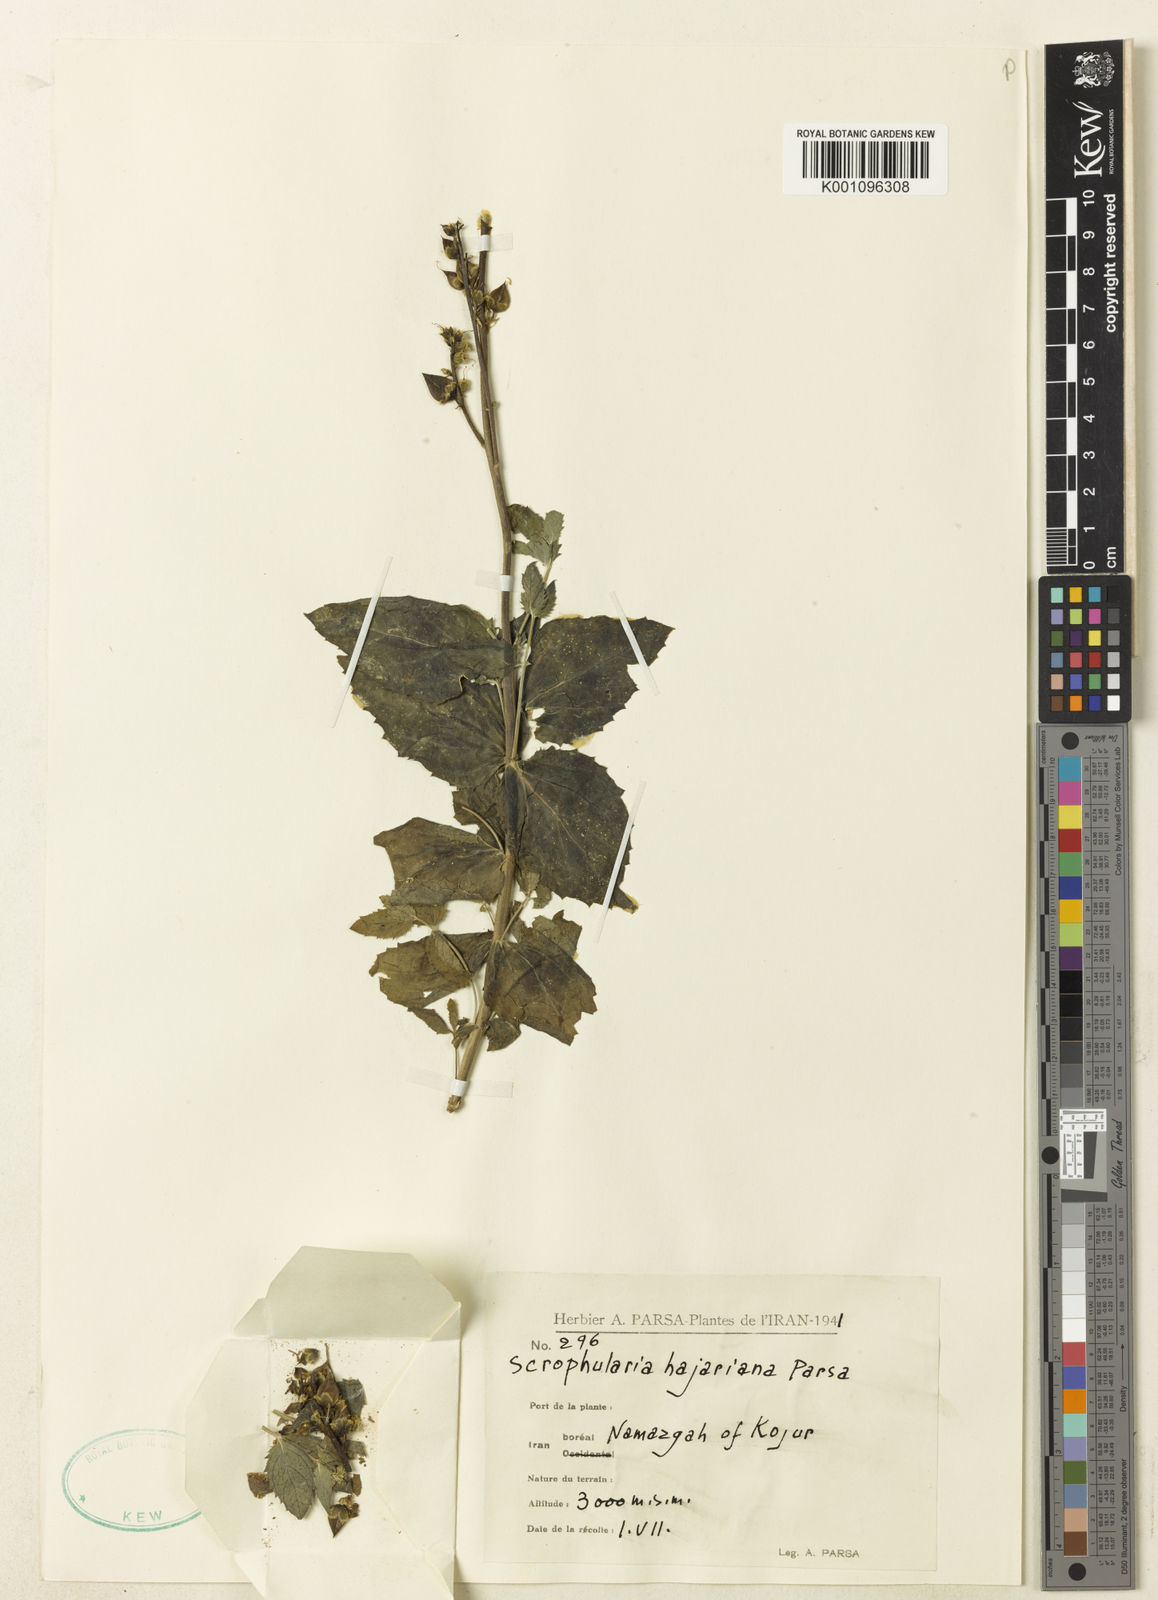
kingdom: Plantae
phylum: Tracheophyta
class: Magnoliopsida
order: Lamiales
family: Scrophulariaceae
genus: Scrophularia
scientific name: Scrophularia amplexicaulis
